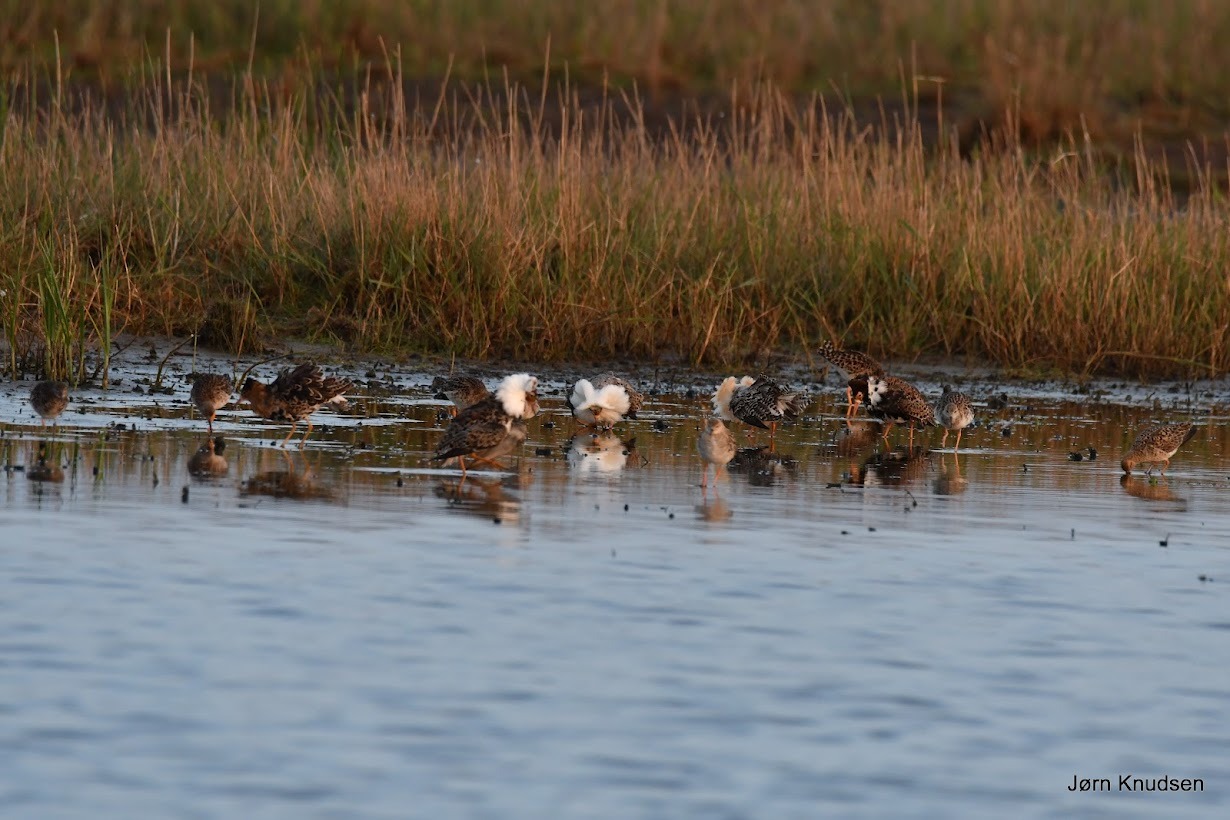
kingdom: Animalia
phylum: Chordata
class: Aves
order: Charadriiformes
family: Scolopacidae
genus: Calidris
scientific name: Calidris pugnax
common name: Brushane
